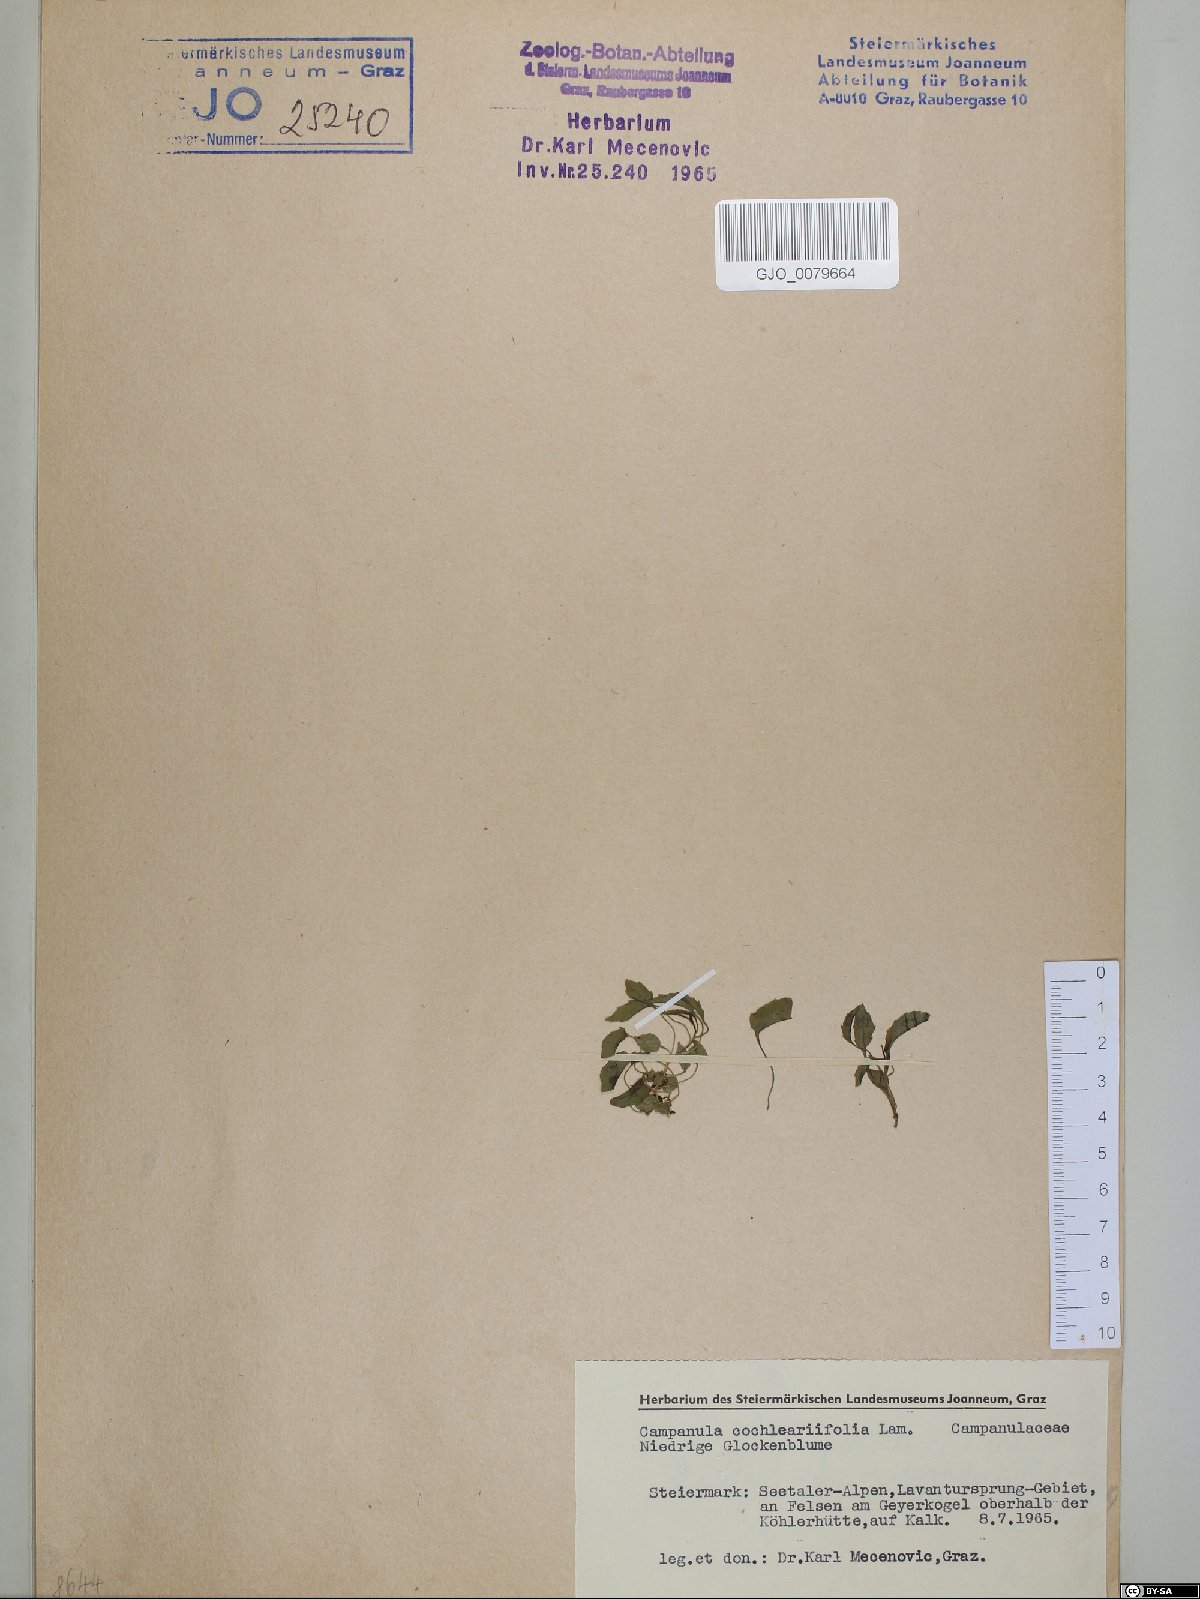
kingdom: Plantae
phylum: Tracheophyta
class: Magnoliopsida
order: Asterales
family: Campanulaceae
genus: Campanula
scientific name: Campanula cochleariifolia
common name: Fairies'-thimbles
